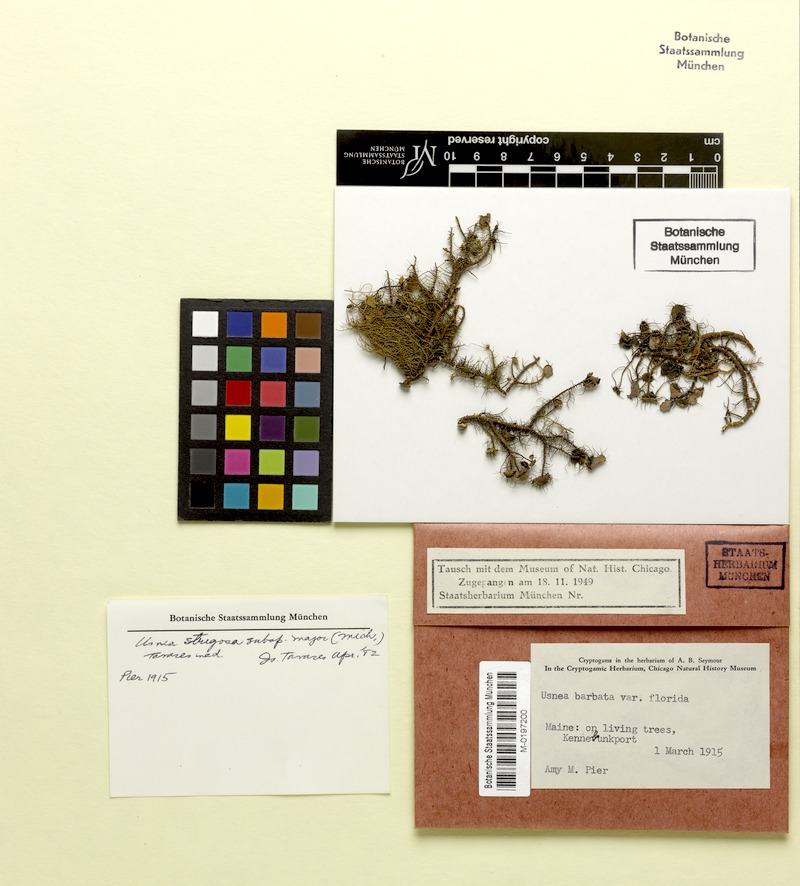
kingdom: Fungi
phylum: Ascomycota
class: Lecanoromycetes
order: Lecanorales
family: Parmeliaceae
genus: Usnea
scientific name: Usnea strigosa
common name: Bushy beard lichen
